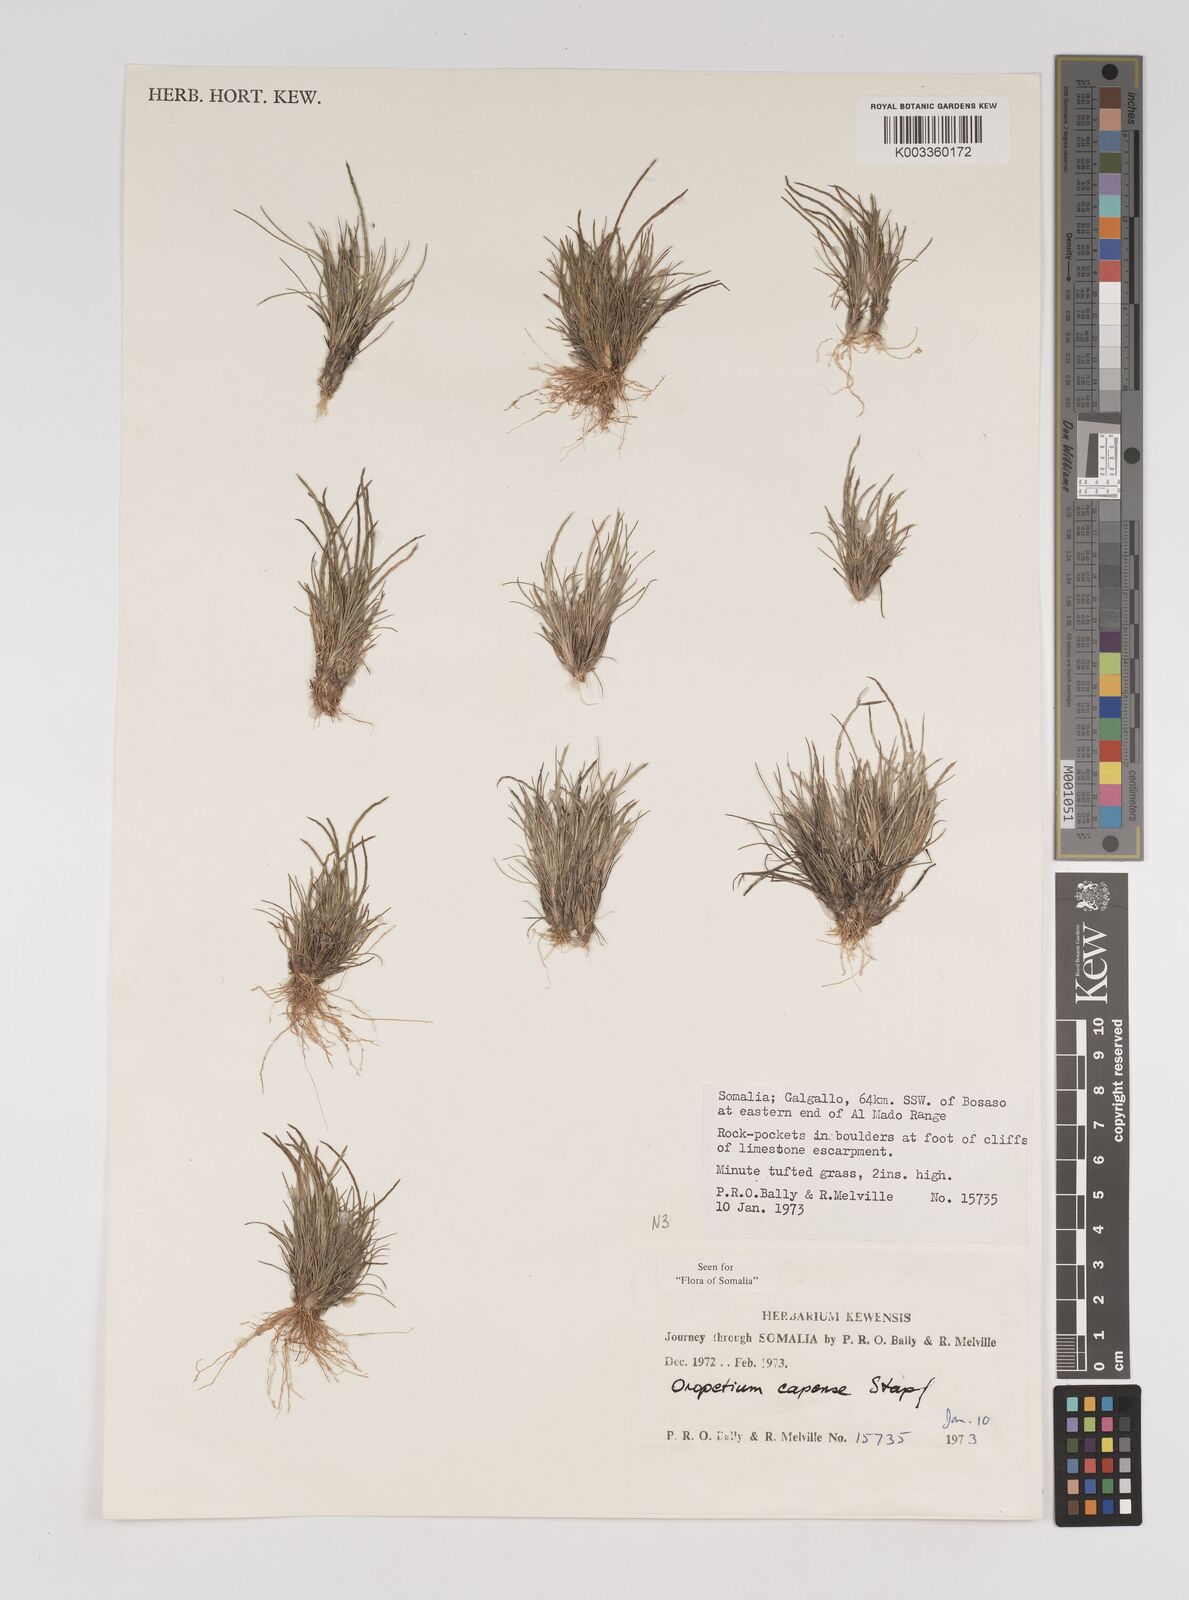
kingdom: Plantae
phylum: Tracheophyta
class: Liliopsida
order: Poales
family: Poaceae
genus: Oropetium
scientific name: Oropetium capense
